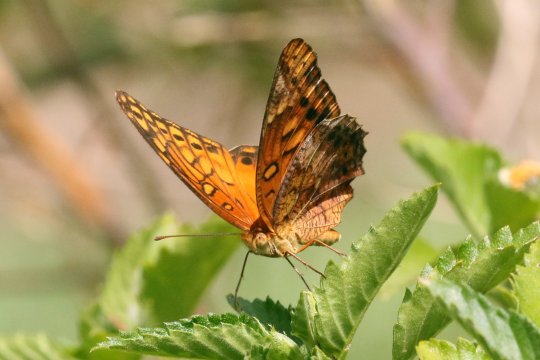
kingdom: Animalia
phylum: Arthropoda
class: Insecta
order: Lepidoptera
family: Nymphalidae
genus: Euptoieta
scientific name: Euptoieta hegesia
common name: Mexican Fritillary
